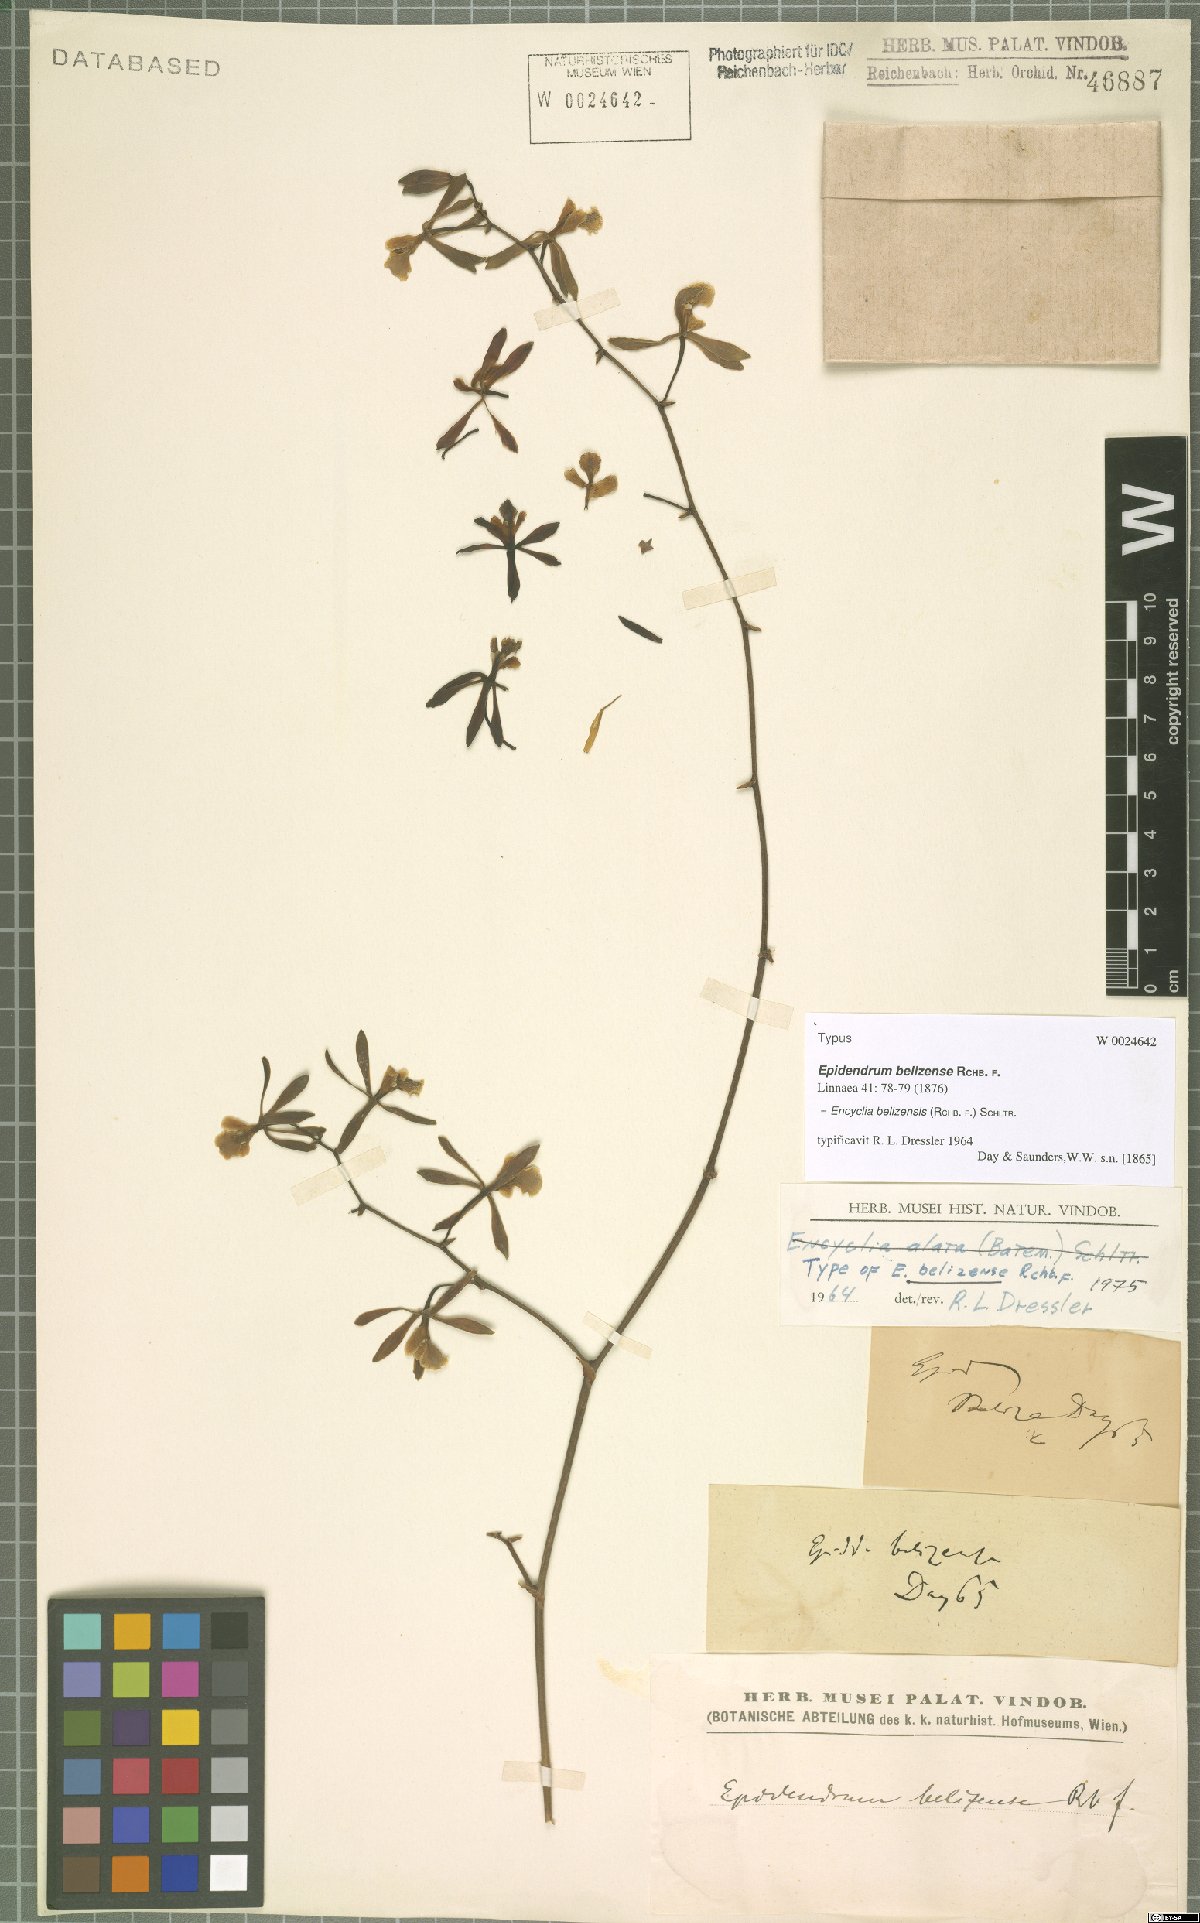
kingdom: Plantae
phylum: Tracheophyta
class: Liliopsida
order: Asparagales
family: Orchidaceae
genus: Encyclia
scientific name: Encyclia guatemalensis
